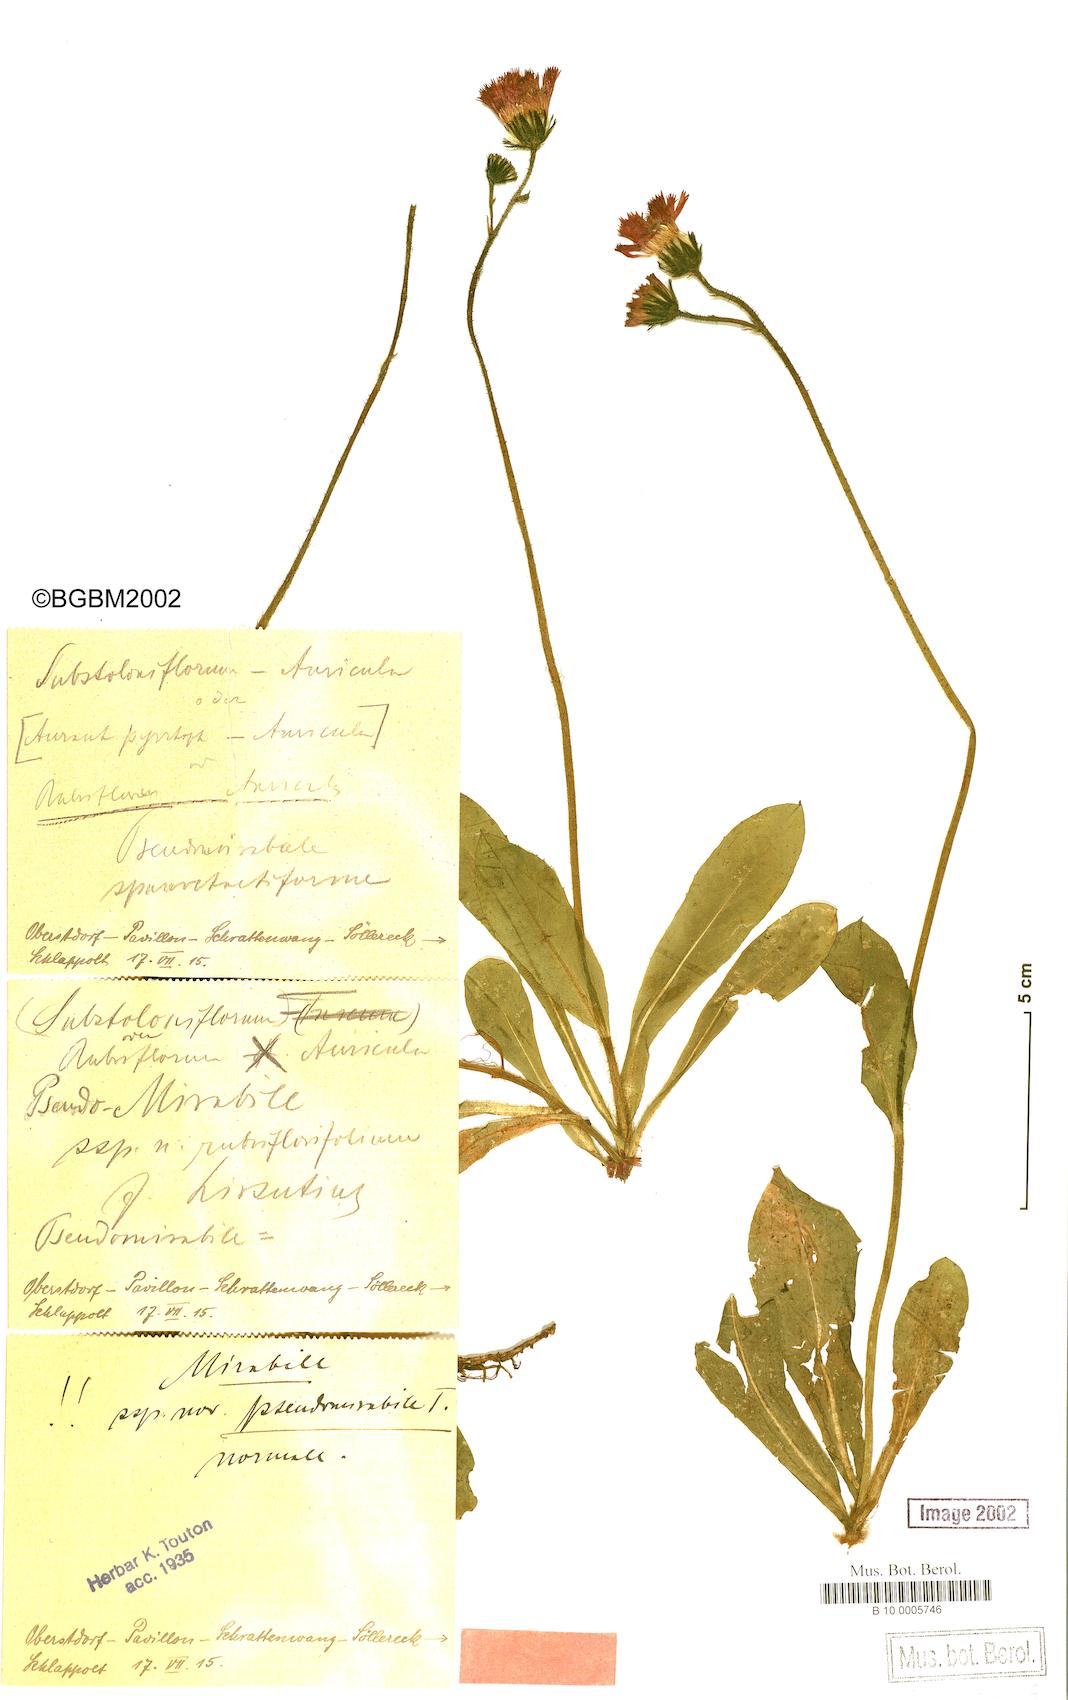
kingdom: Plantae
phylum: Tracheophyta
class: Magnoliopsida
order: Asterales
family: Asteraceae
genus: Pilosella
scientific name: Pilosella aurantiaca
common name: Fox-and-cubs
